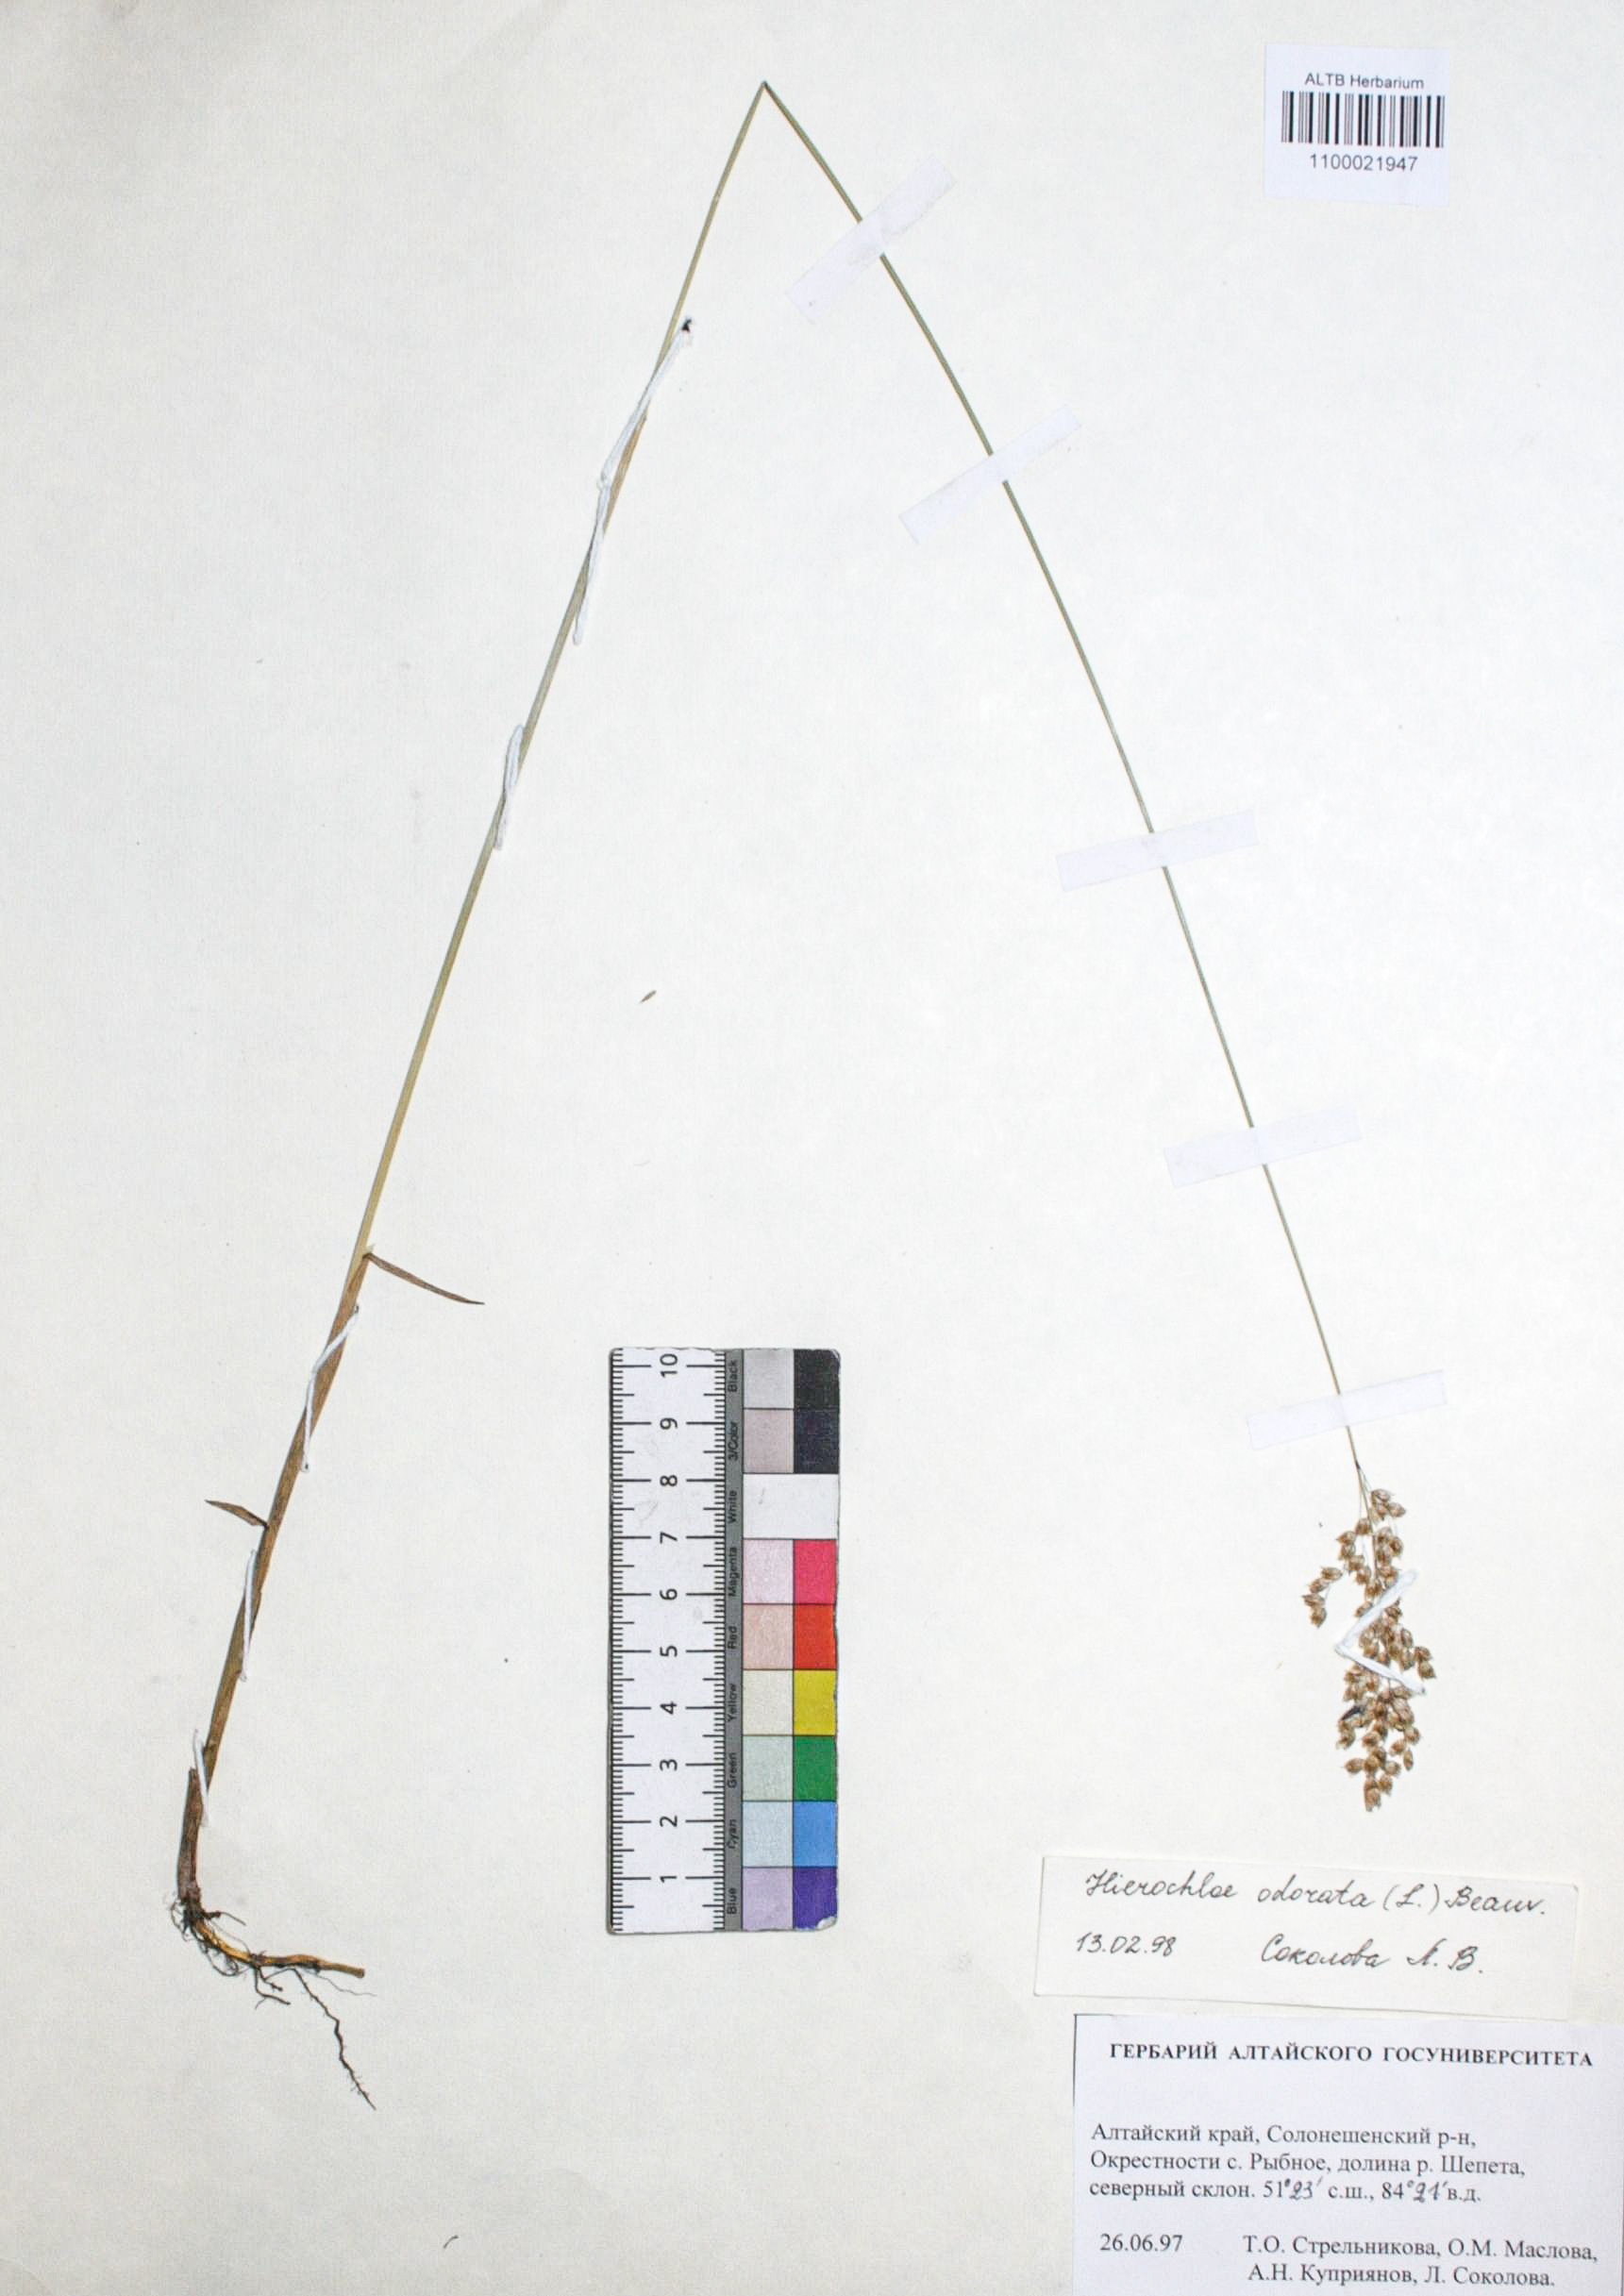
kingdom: Plantae
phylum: Tracheophyta
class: Liliopsida
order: Poales
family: Poaceae
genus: Anthoxanthum
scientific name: Anthoxanthum glabrum
